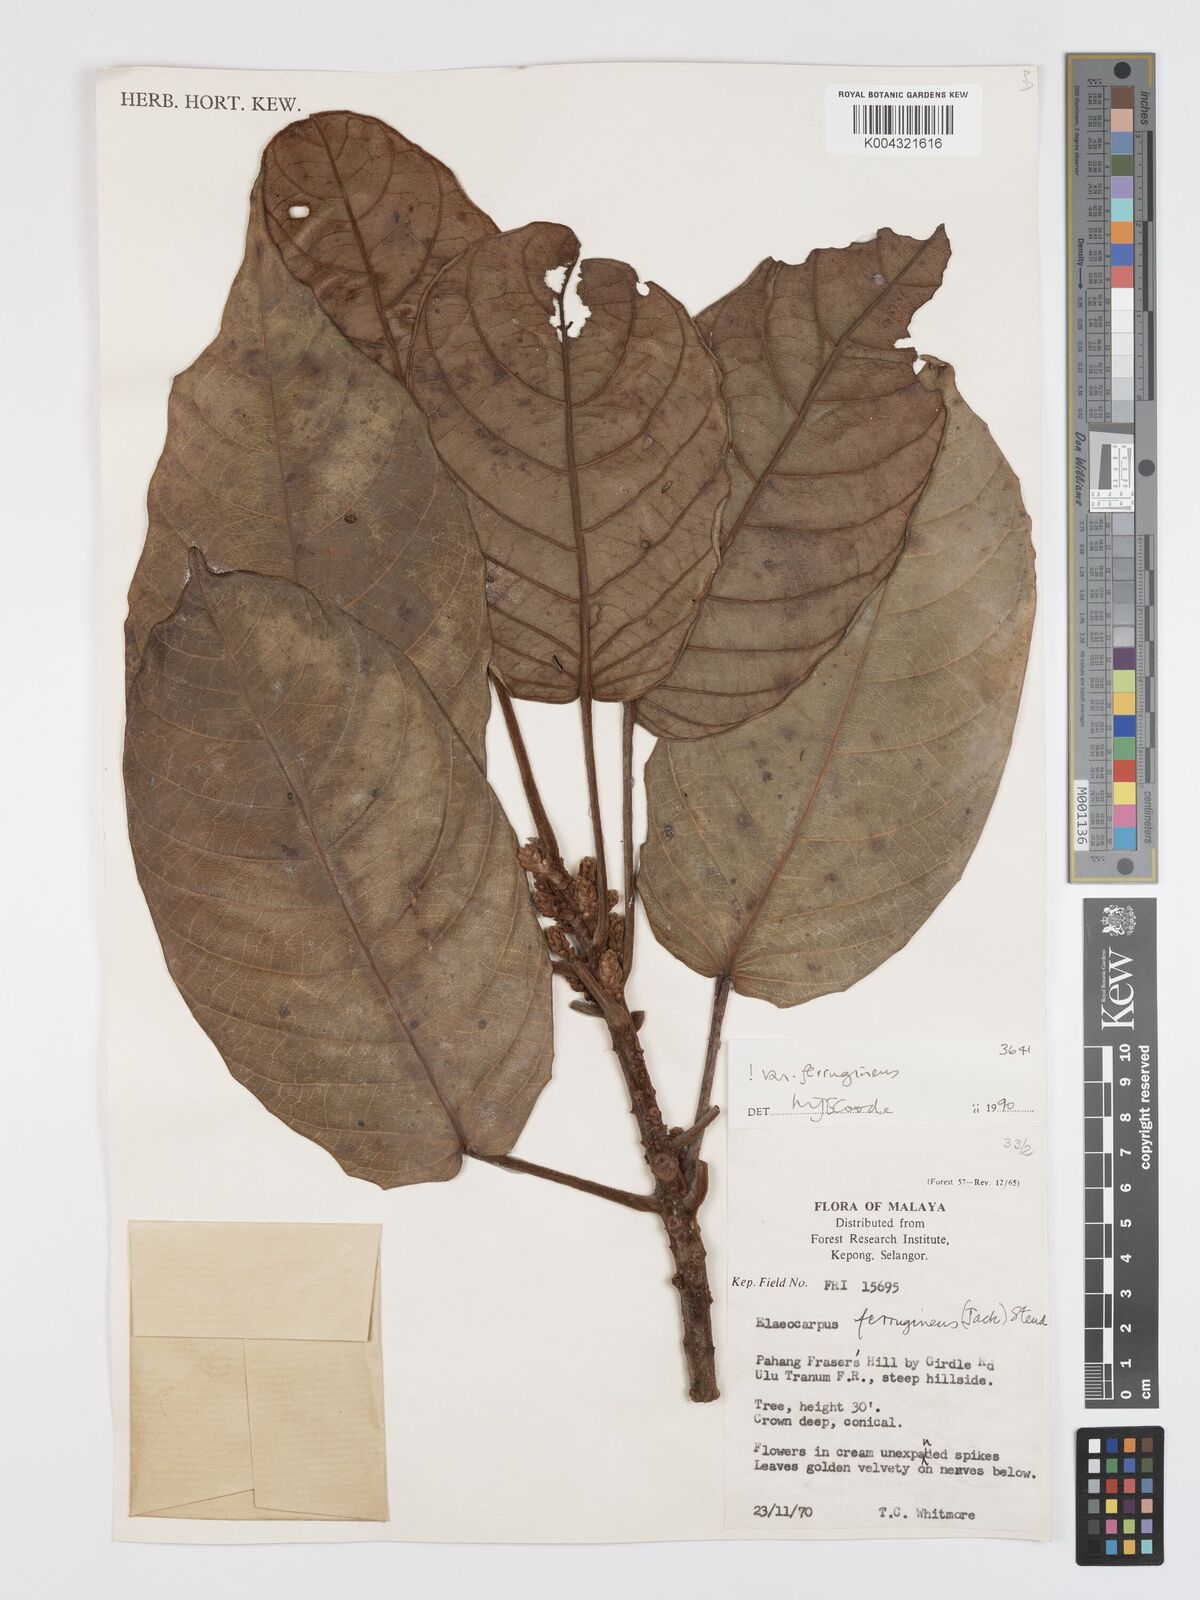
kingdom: Plantae
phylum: Tracheophyta
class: Magnoliopsida
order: Oxalidales
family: Elaeocarpaceae
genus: Elaeocarpus
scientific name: Elaeocarpus ferrugineus
